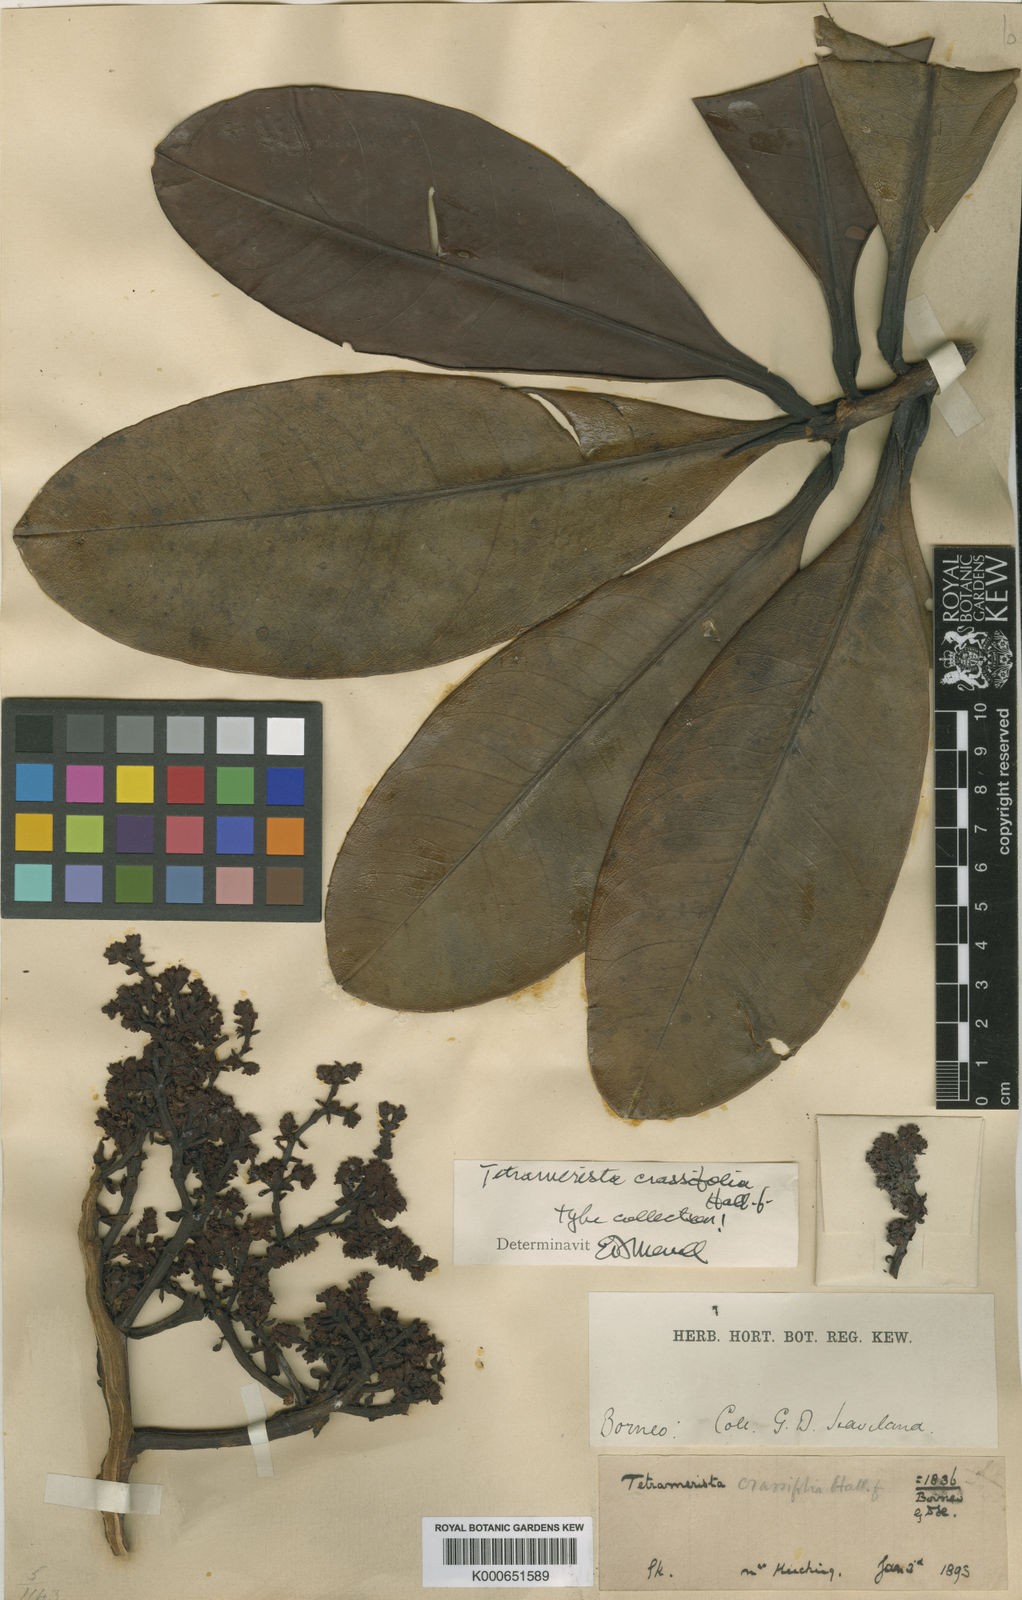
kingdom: Plantae
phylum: Tracheophyta
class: Magnoliopsida
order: Ericales
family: Tetrameristaceae
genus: Tetramerista
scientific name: Tetramerista glabra
